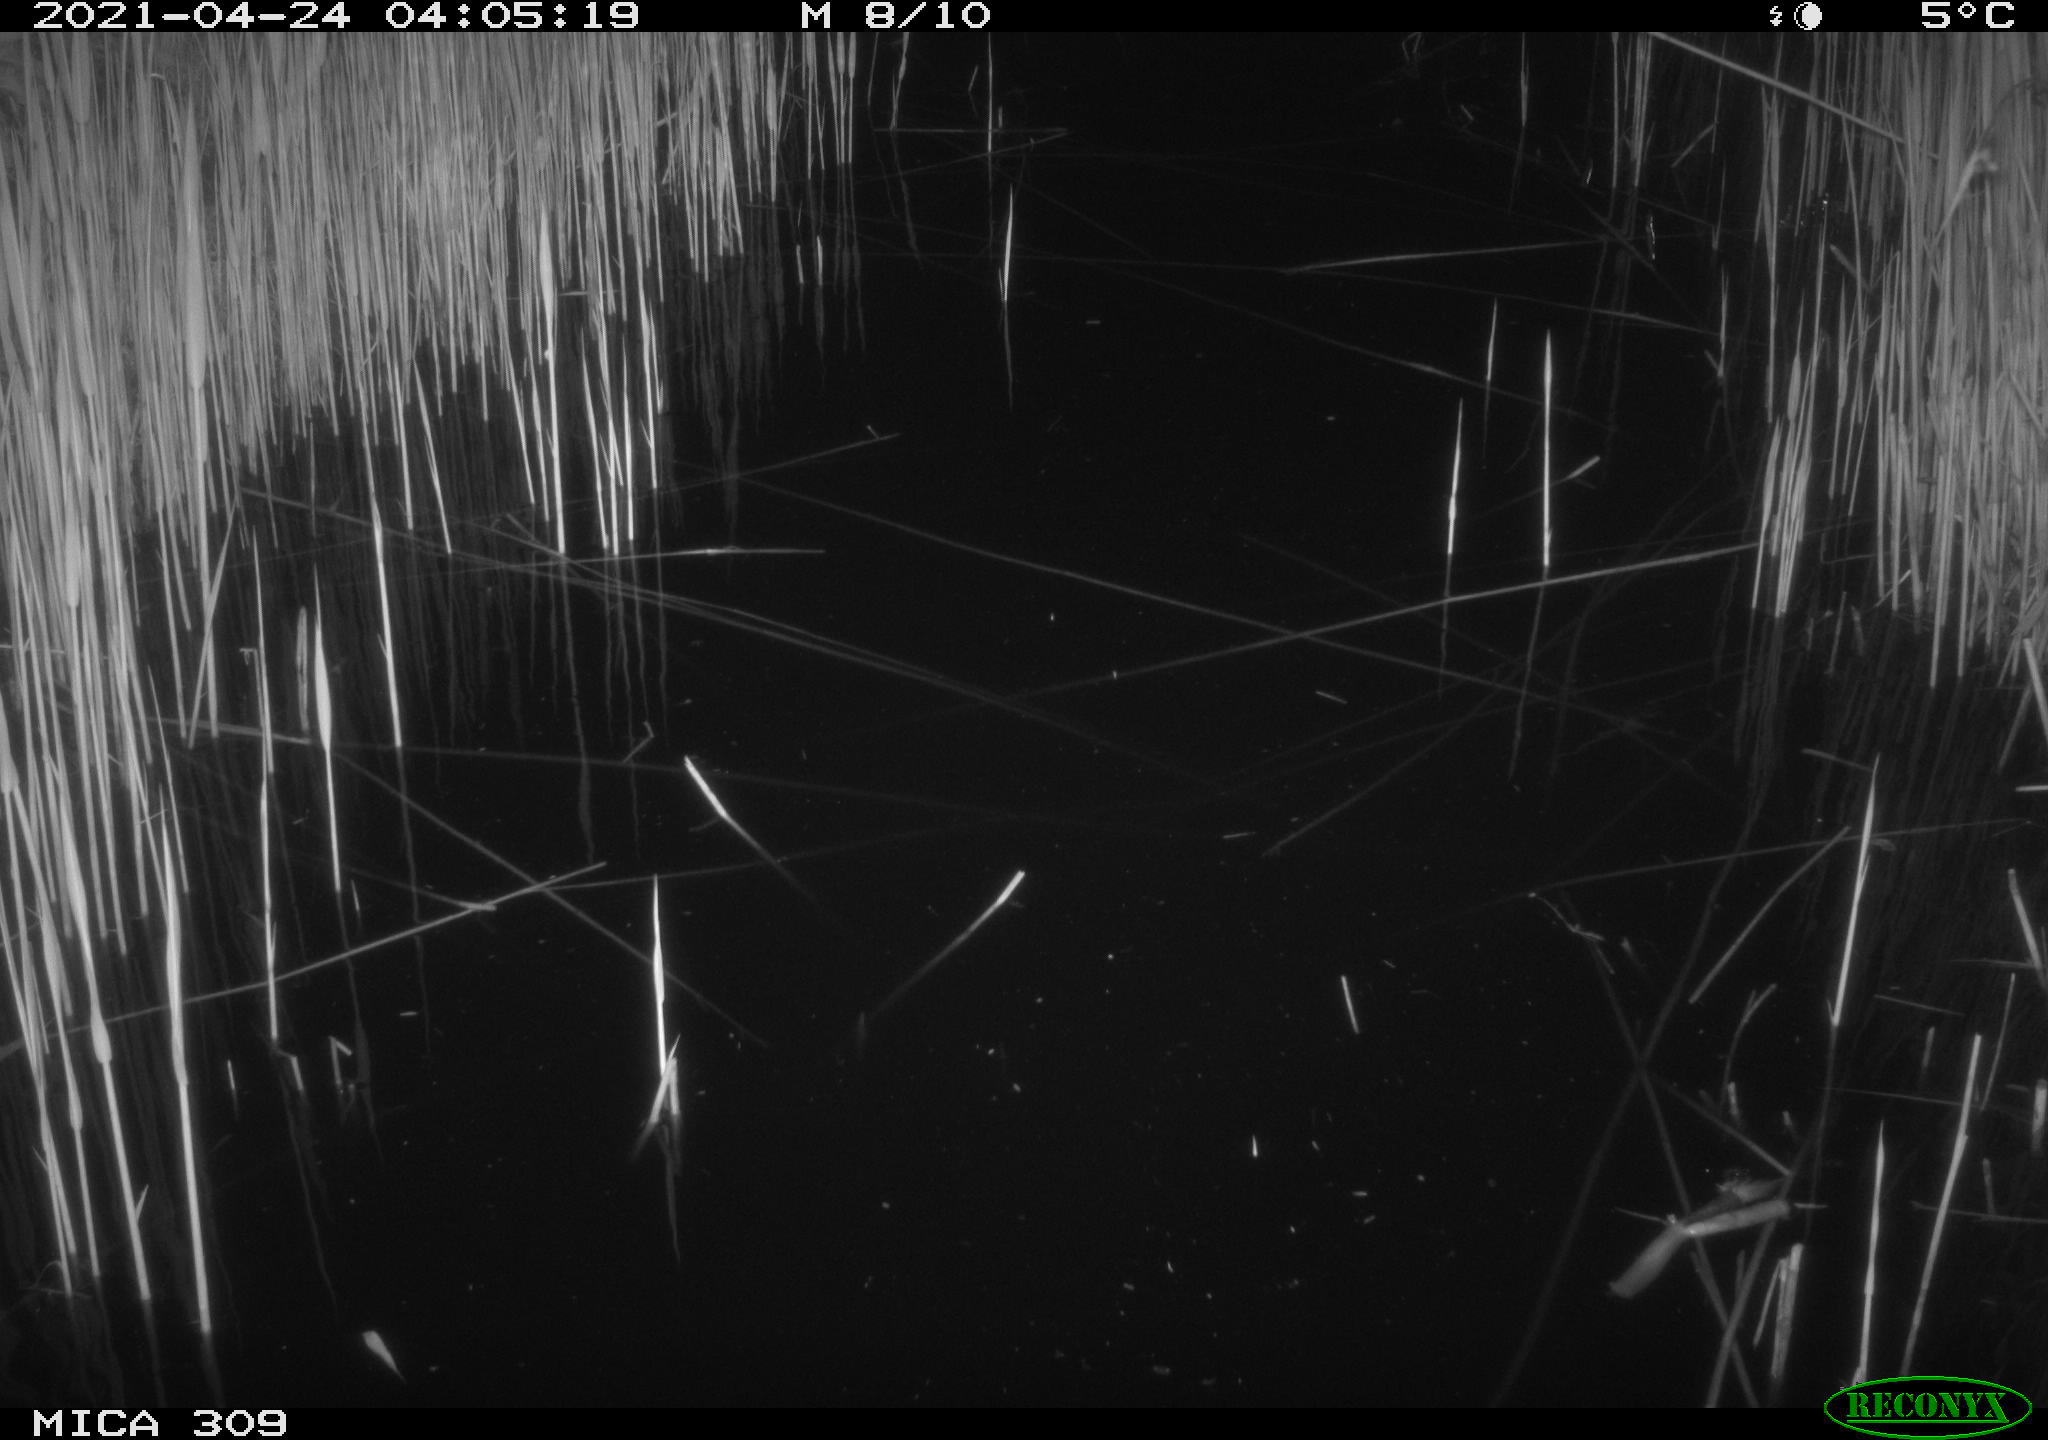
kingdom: Animalia
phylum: Chordata
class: Aves
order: Anseriformes
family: Anatidae
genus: Anas
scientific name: Anas platyrhynchos
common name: Mallard
